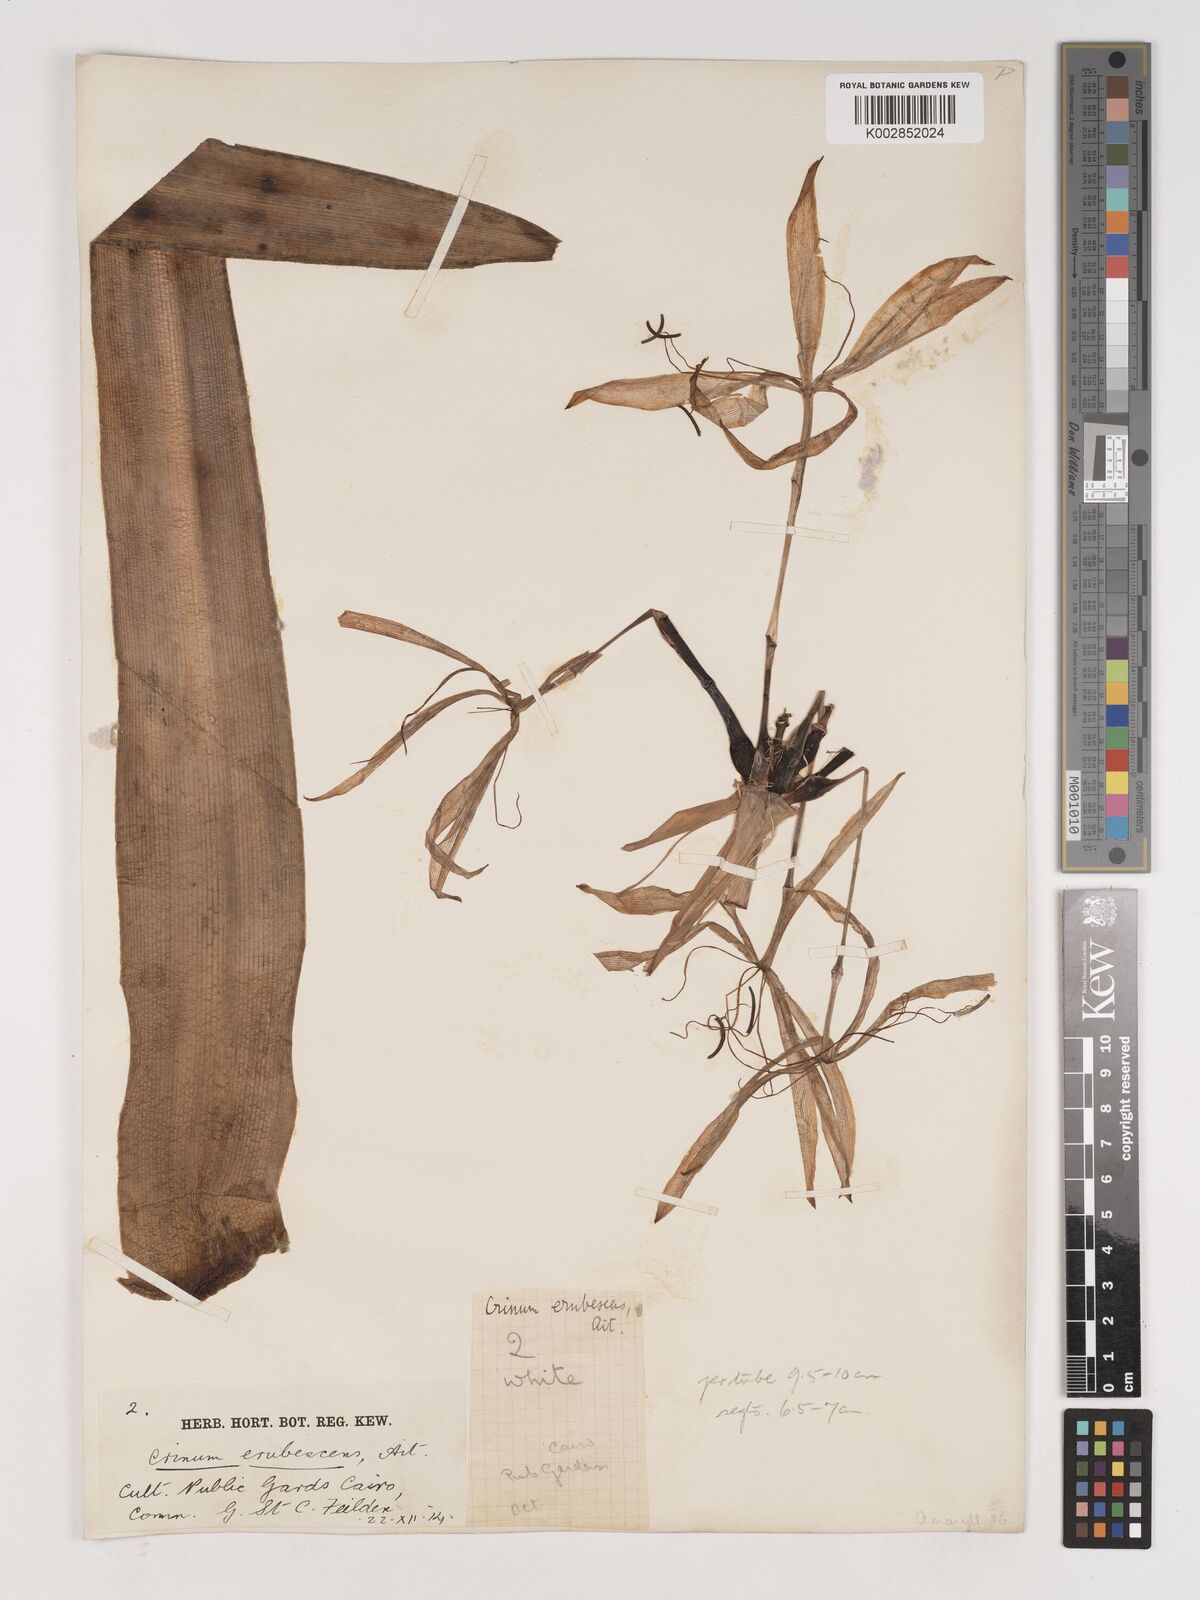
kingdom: Plantae
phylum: Tracheophyta
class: Liliopsida
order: Asparagales
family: Amaryllidaceae
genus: Crinum
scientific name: Crinum erubescens
